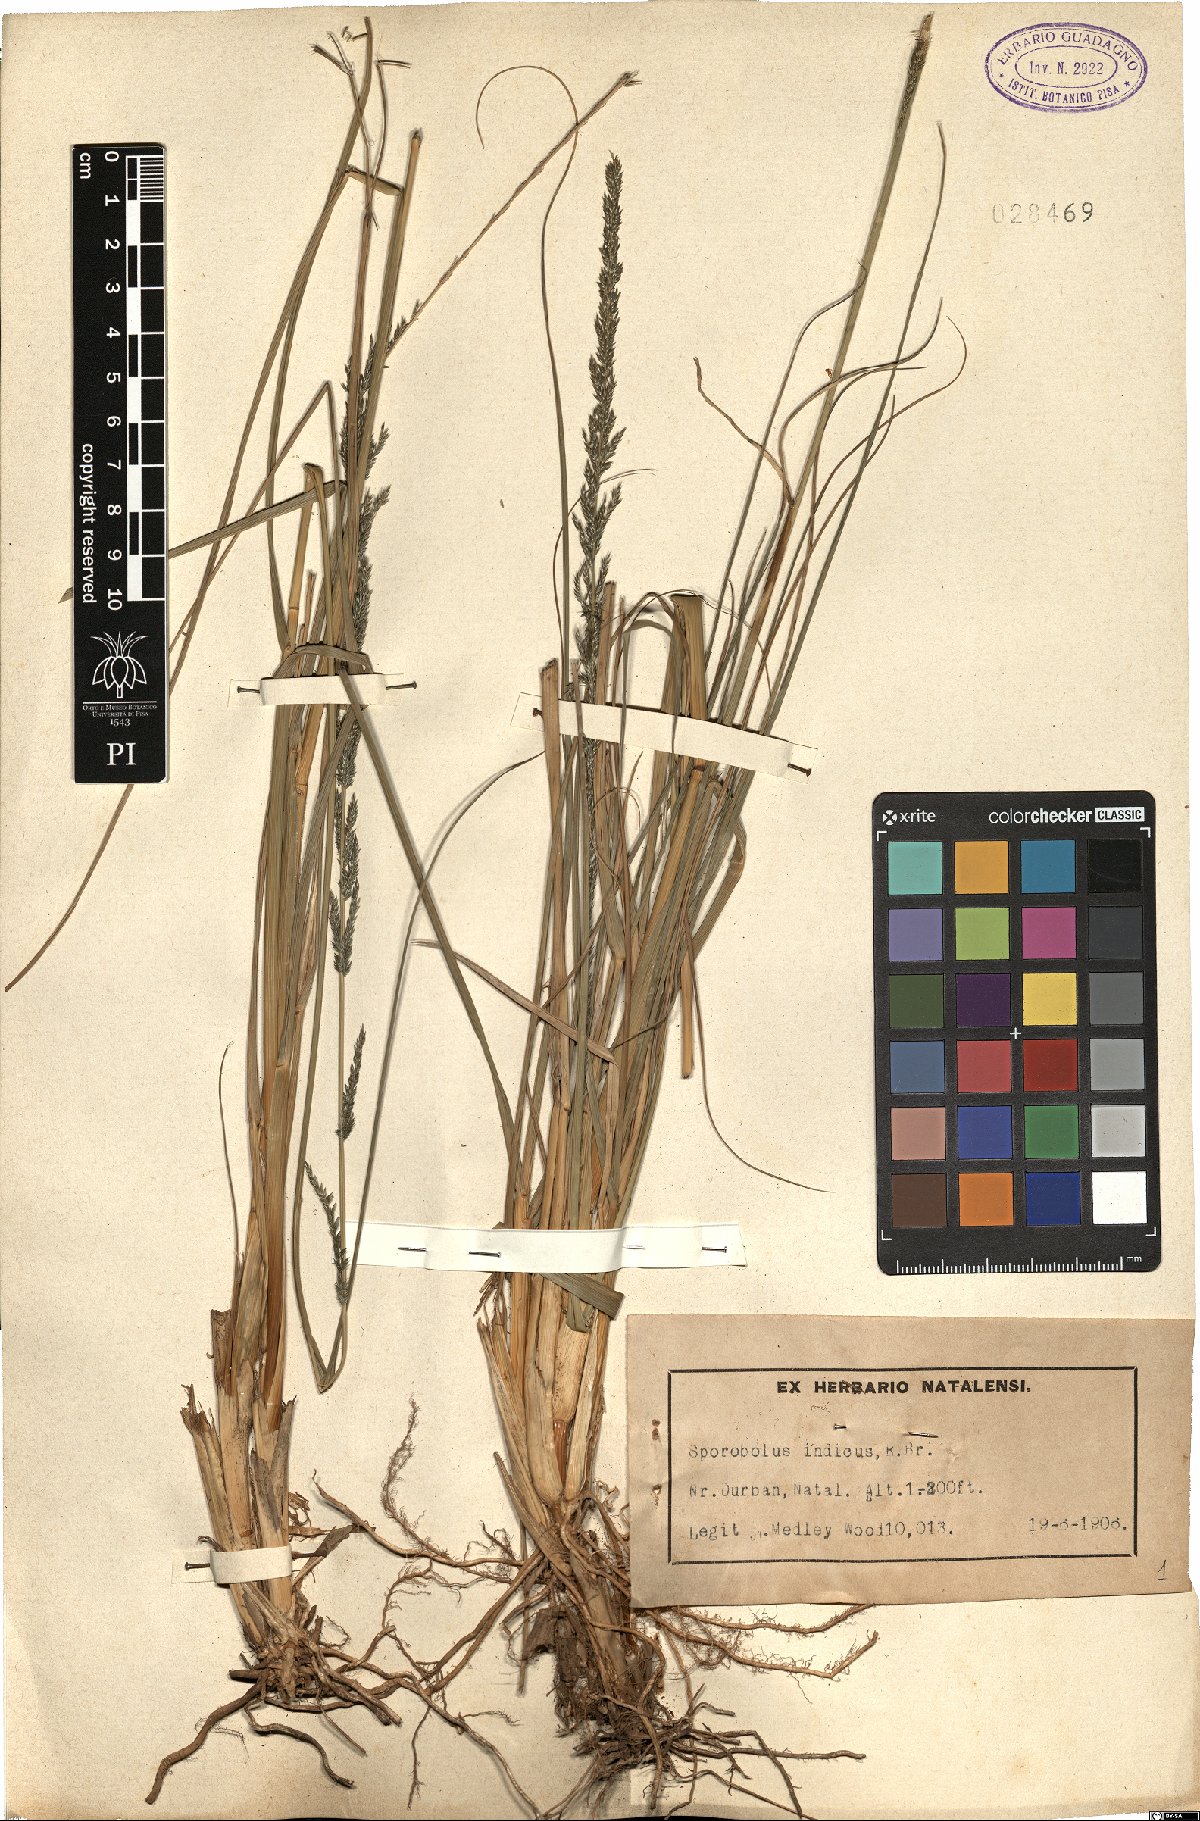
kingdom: Plantae
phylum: Tracheophyta
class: Liliopsida
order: Poales
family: Poaceae
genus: Sporobolus
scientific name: Sporobolus indicus
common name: Smut grass
